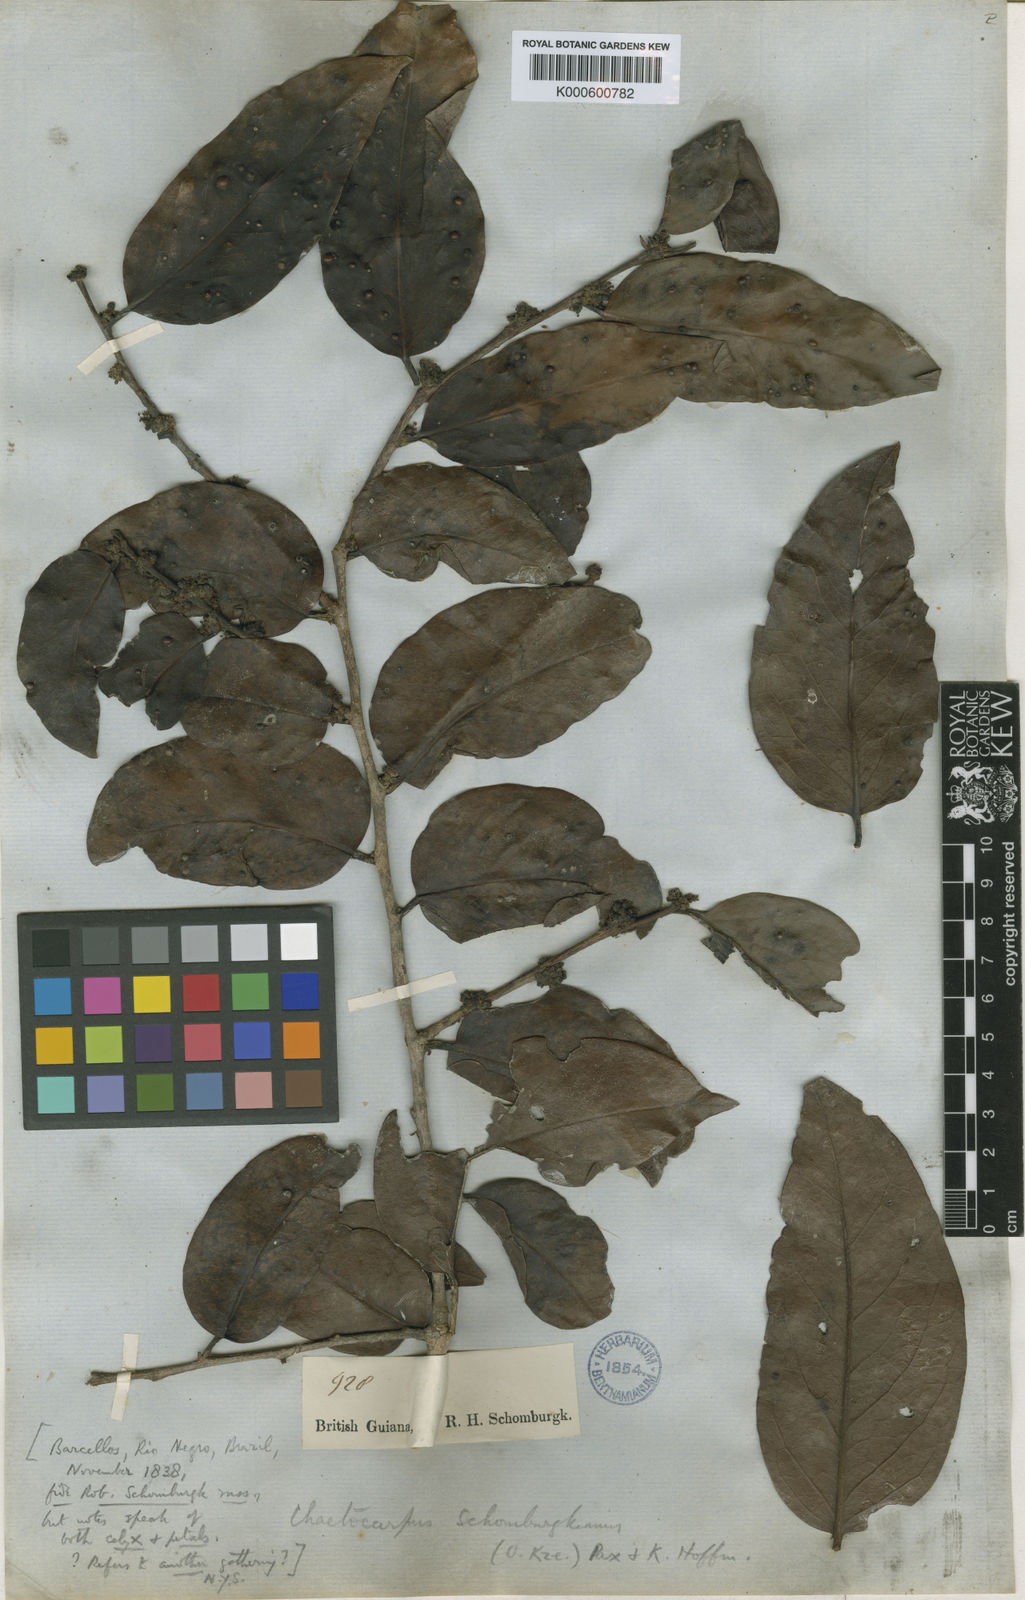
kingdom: Plantae
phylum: Tracheophyta
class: Magnoliopsida
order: Malpighiales
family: Peraceae
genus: Chaetocarpus
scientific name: Chaetocarpus schomburgkianus
